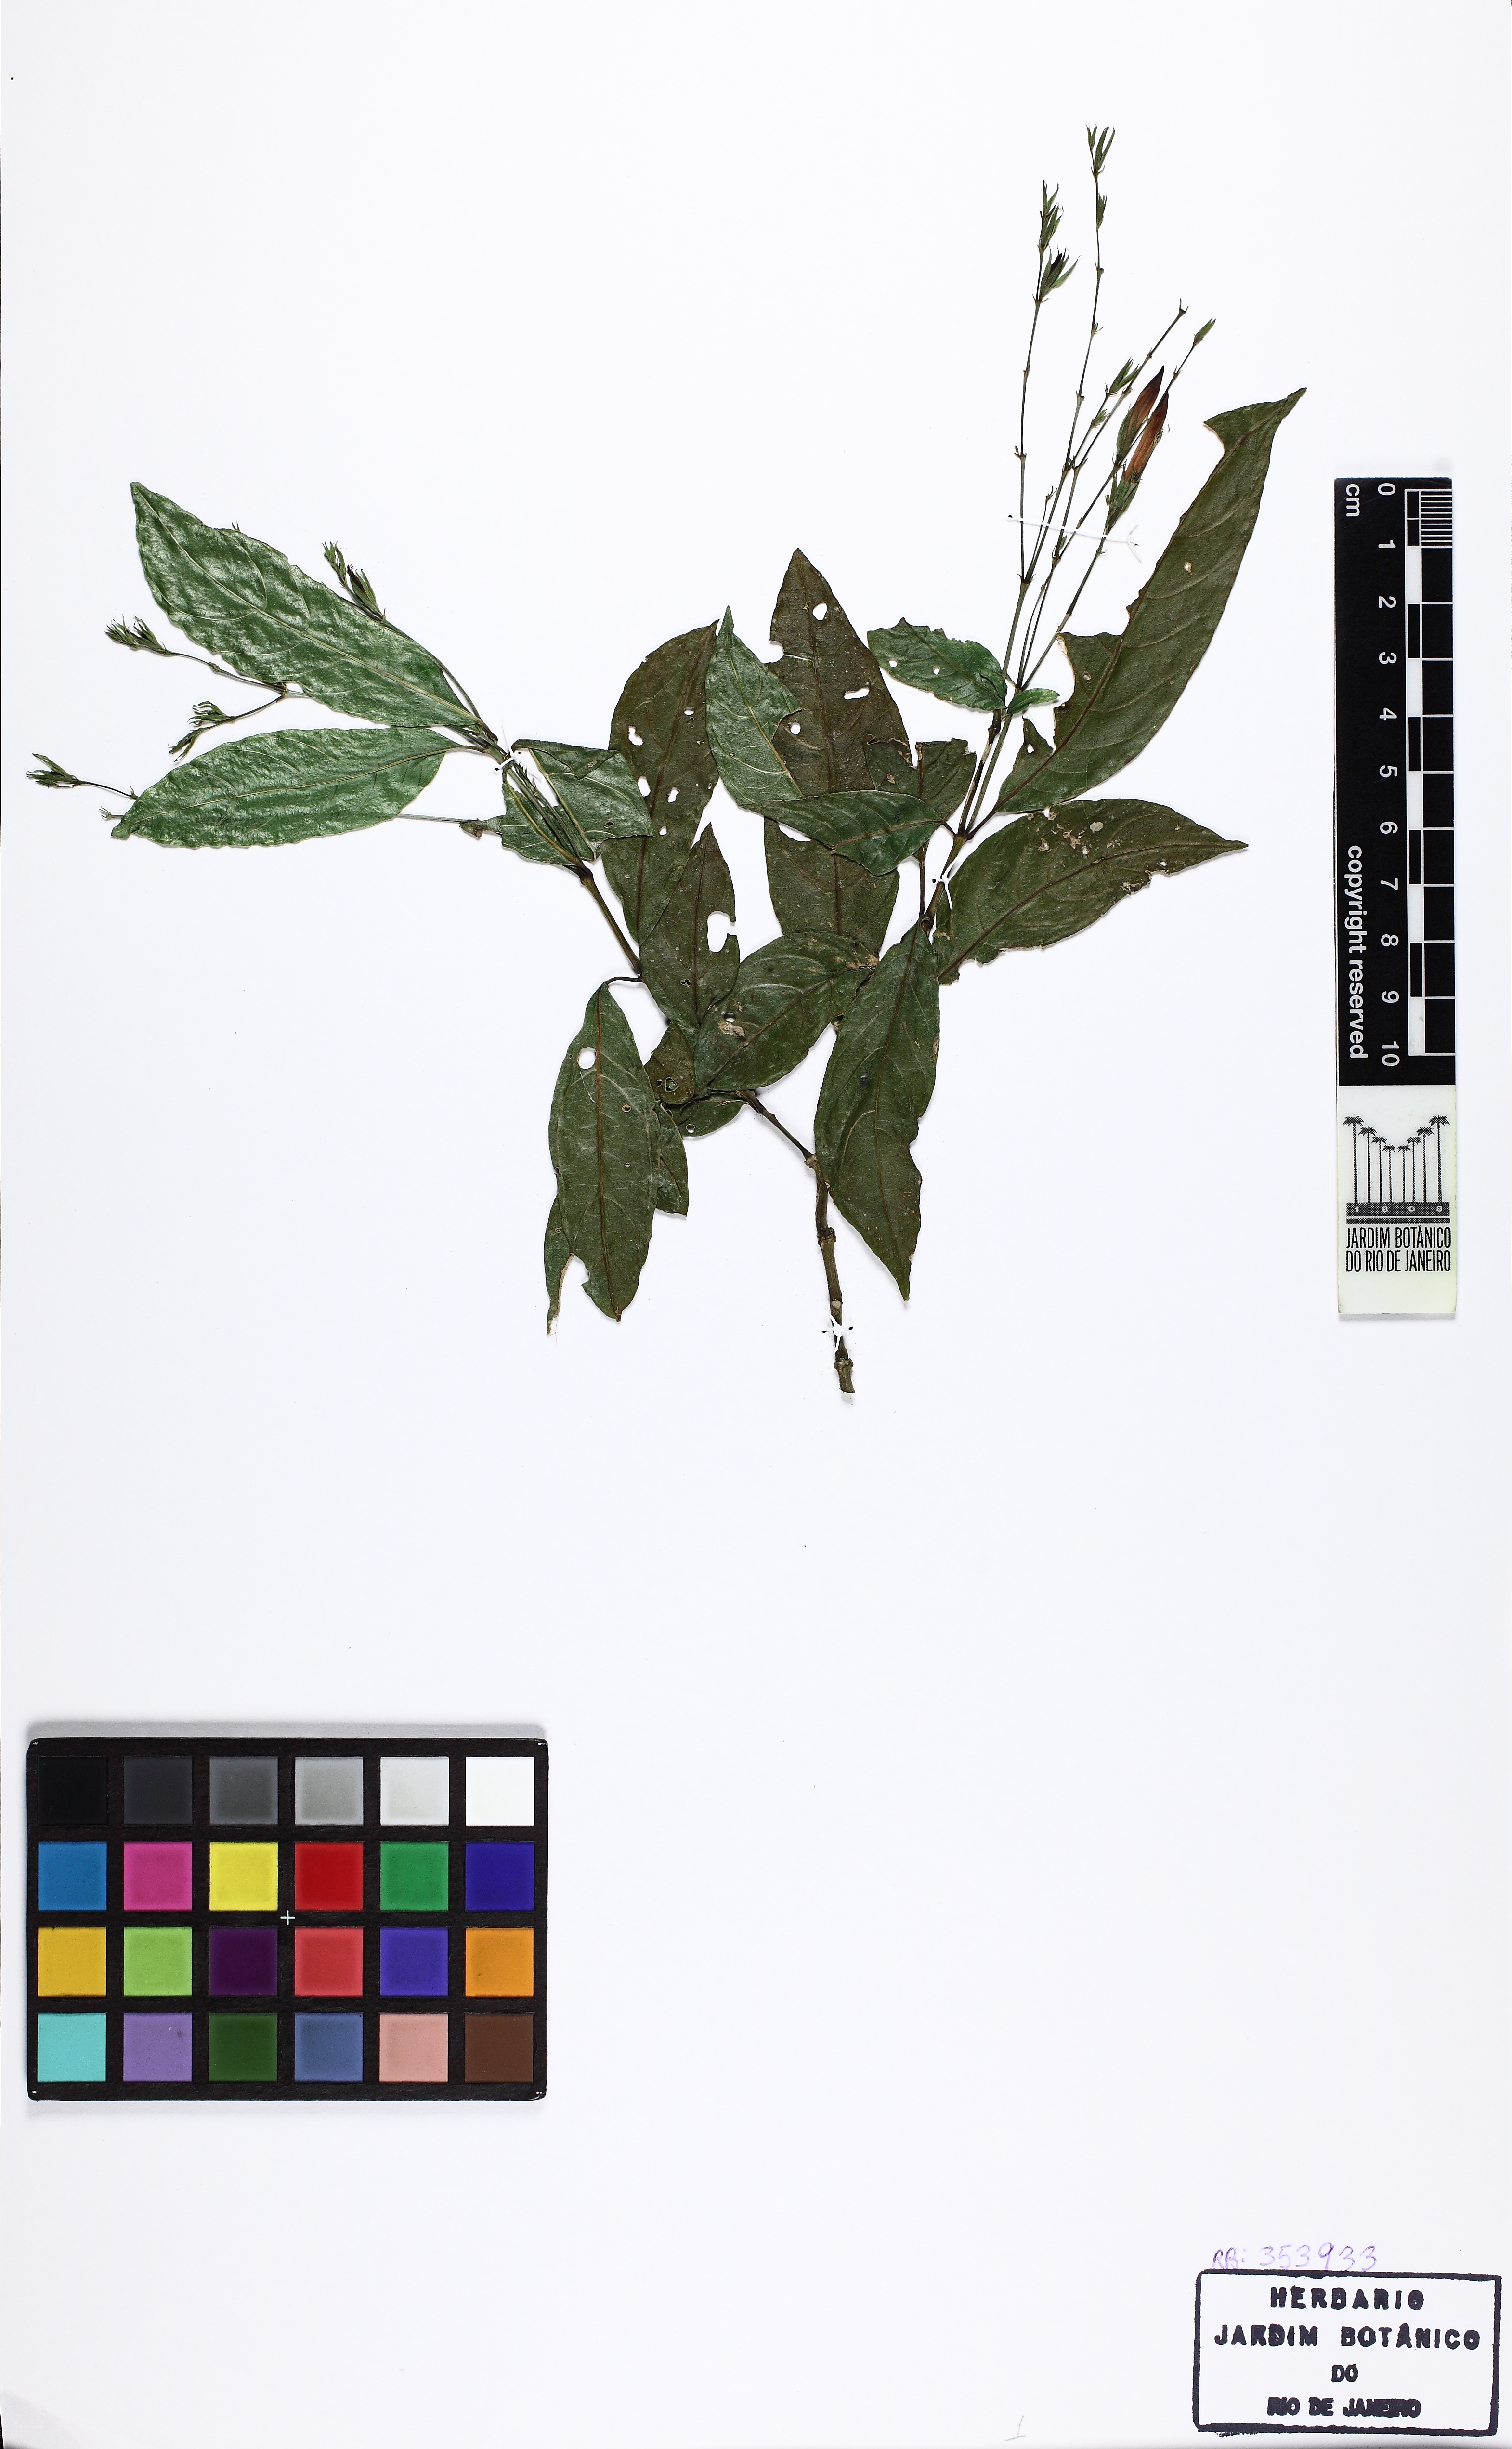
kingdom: Plantae
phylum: Tracheophyta
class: Magnoliopsida
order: Lamiales
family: Acanthaceae
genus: Justicia
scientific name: Justicia
